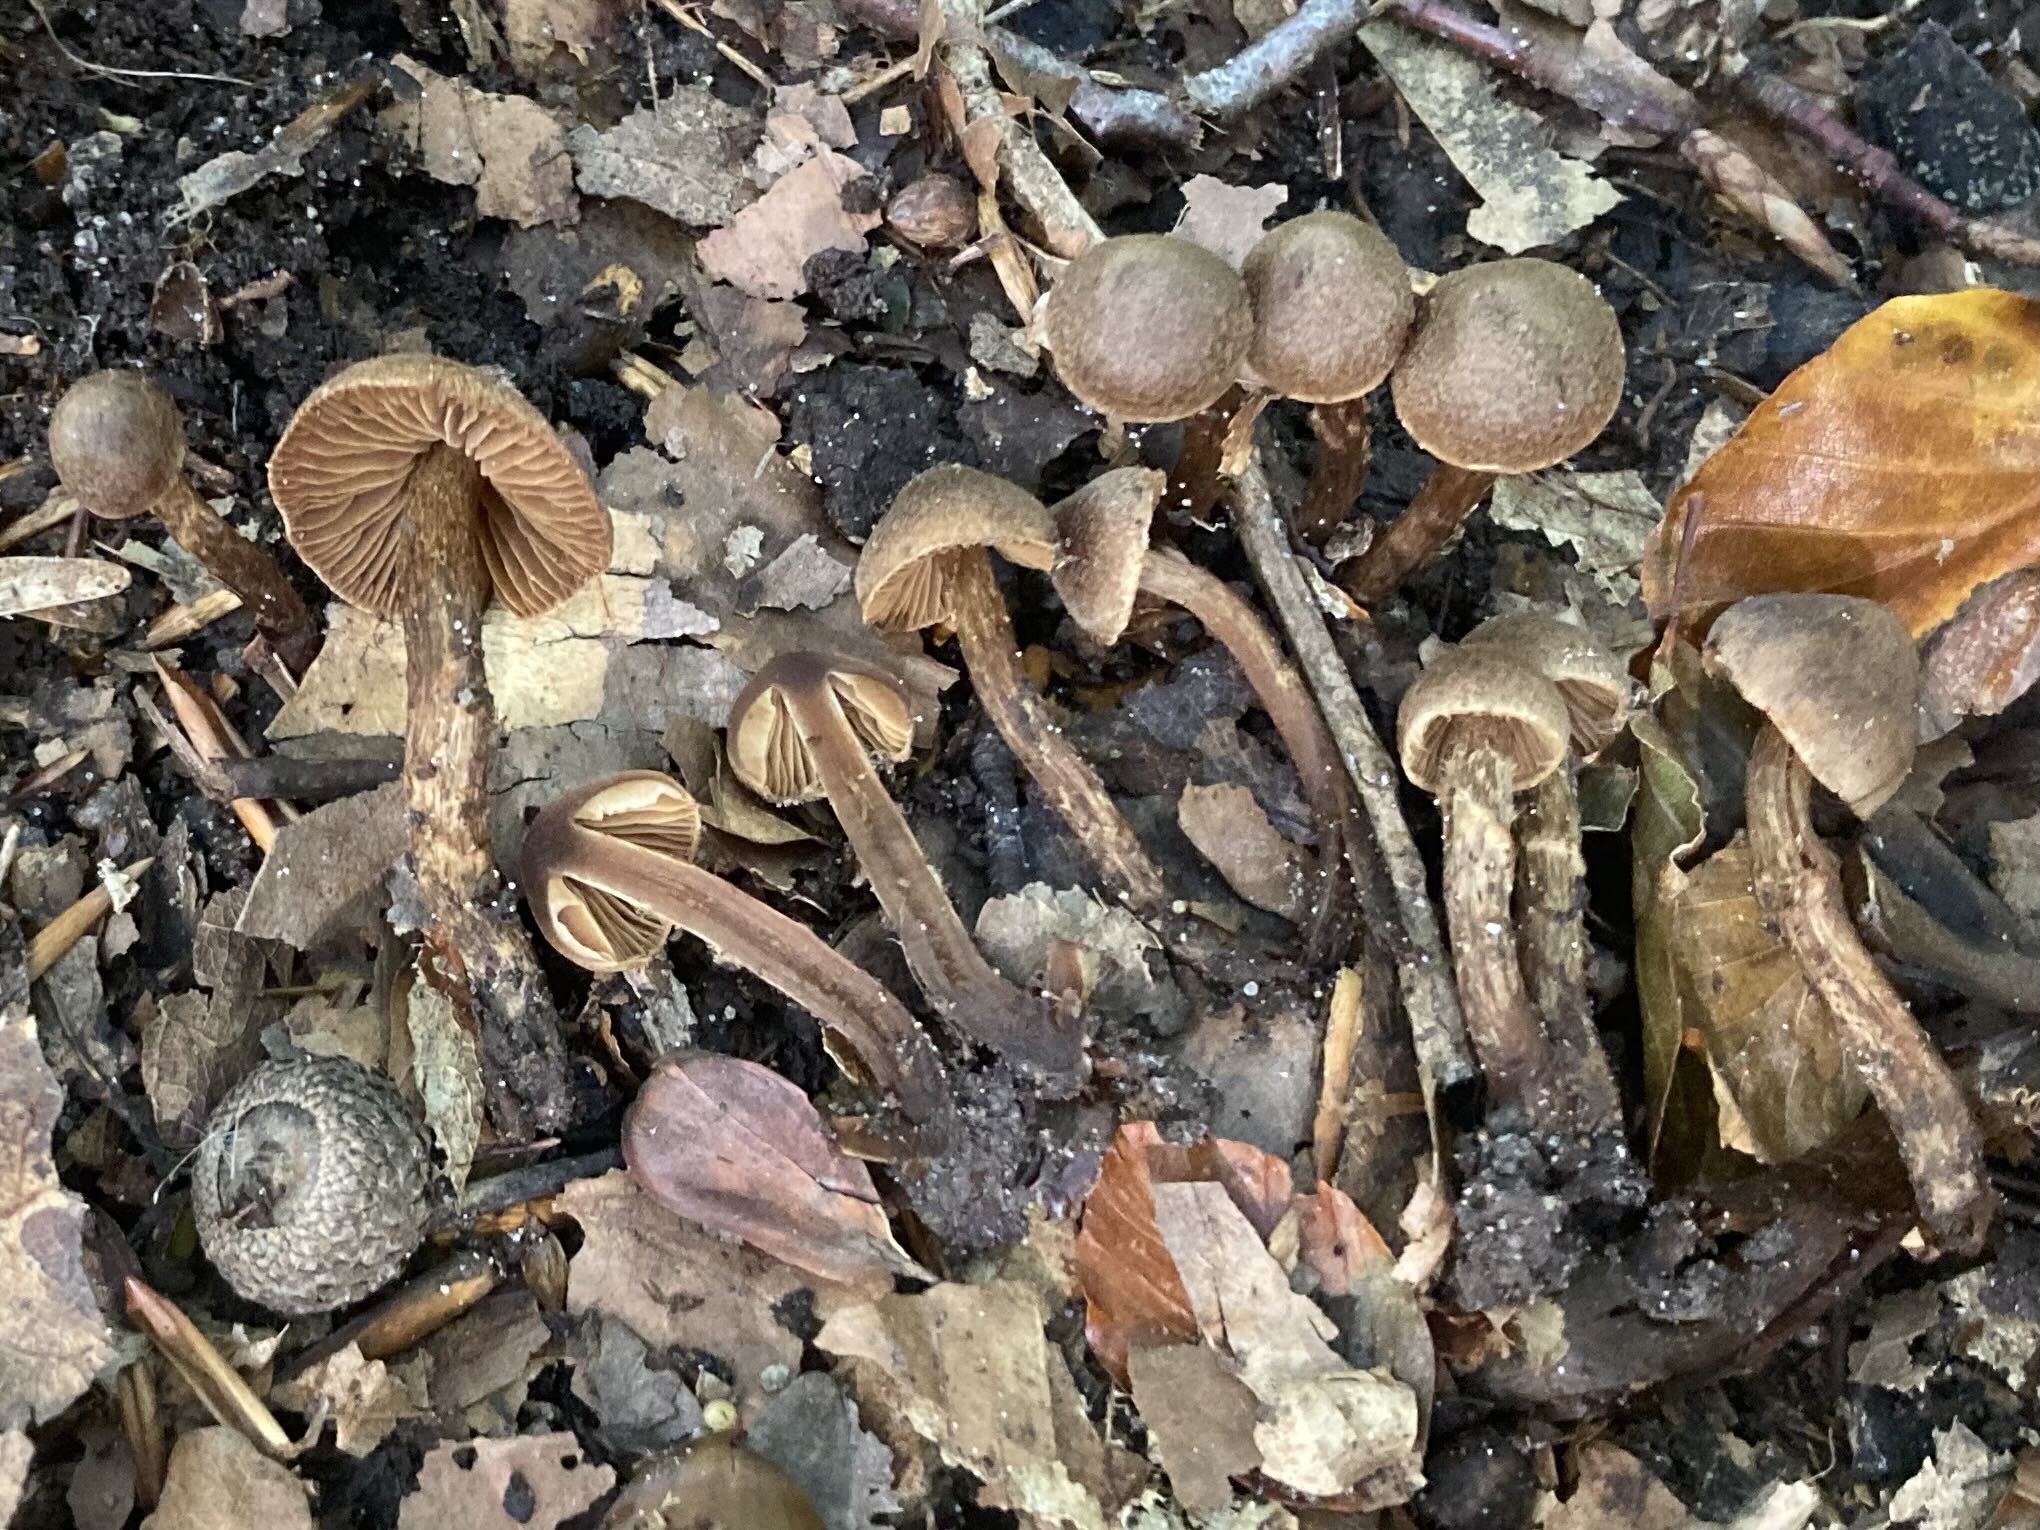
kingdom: Fungi
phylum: Basidiomycota
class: Agaricomycetes
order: Agaricales
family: Cortinariaceae
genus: Cortinarius
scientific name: Cortinarius castaneopallidus
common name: bronzetrævlet slørhat
